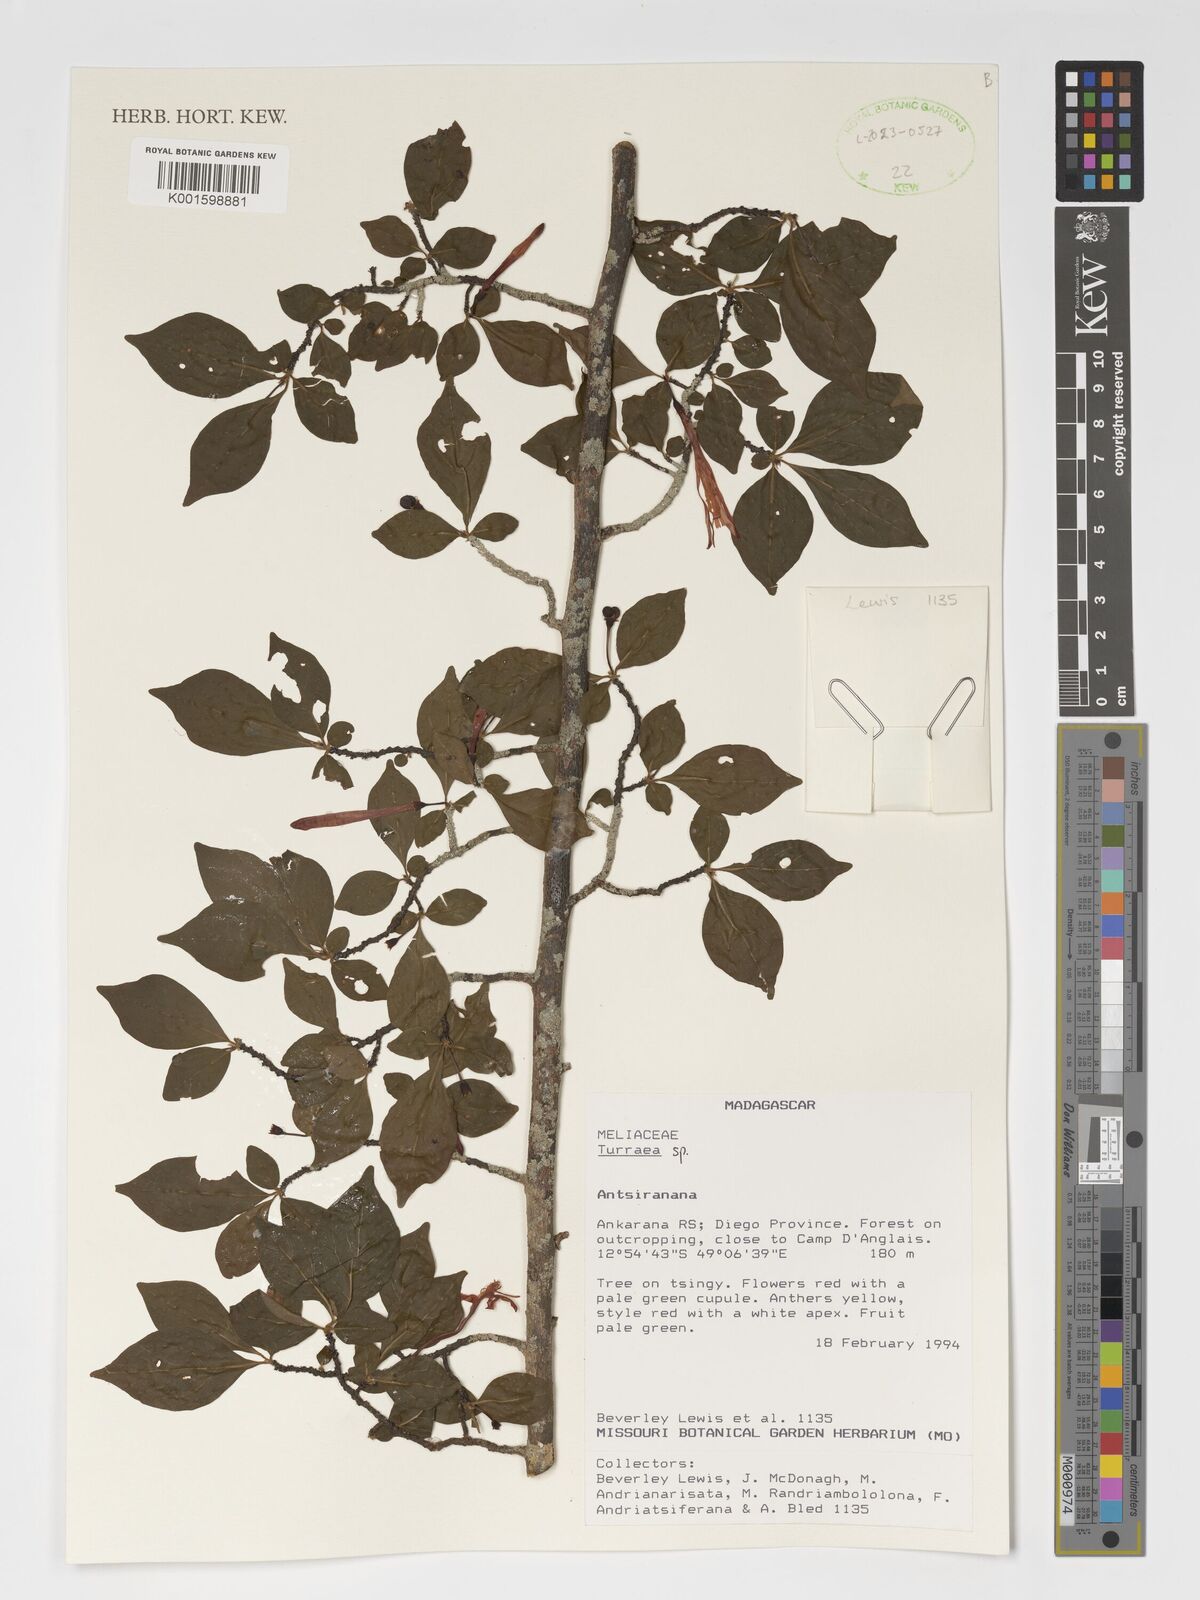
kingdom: Plantae
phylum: Tracheophyta
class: Magnoliopsida
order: Sapindales
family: Meliaceae
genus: Turraea
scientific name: Turraea
